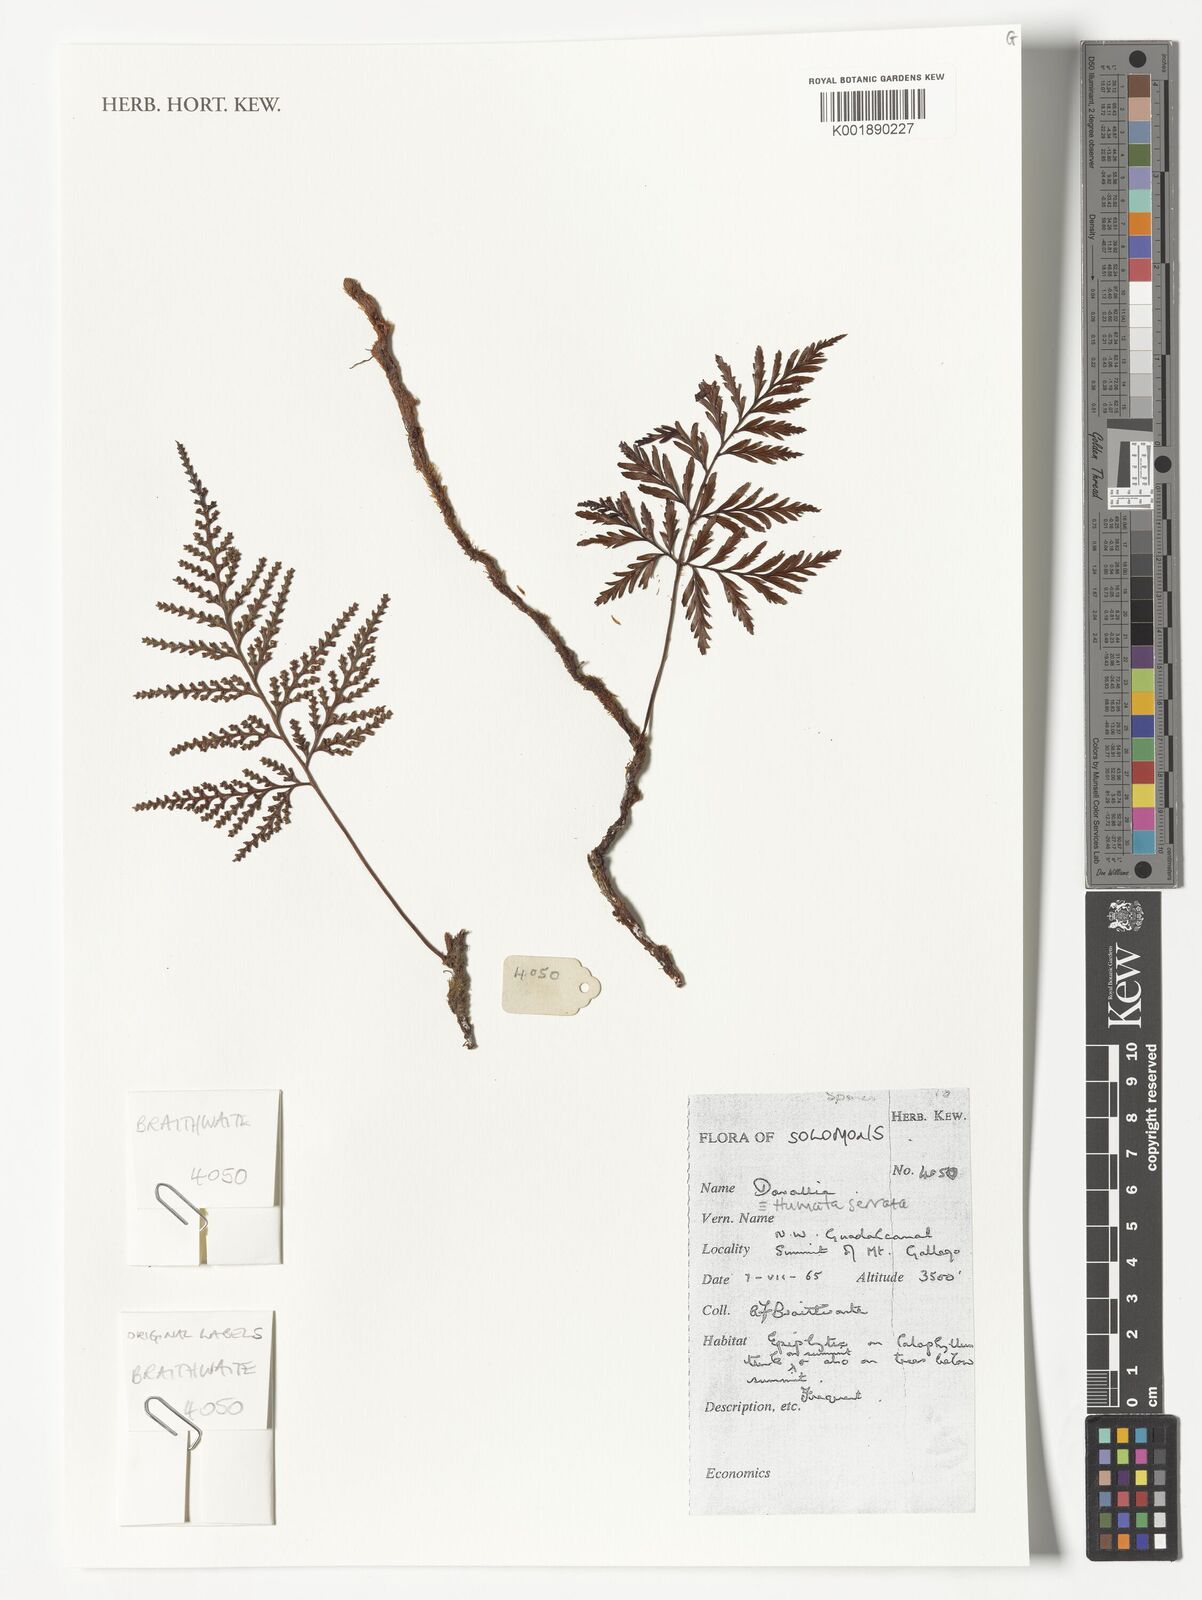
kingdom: Plantae
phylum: Tracheophyta
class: Polypodiopsida
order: Polypodiales
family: Davalliaceae
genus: Davallia
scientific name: Davallia serrata
